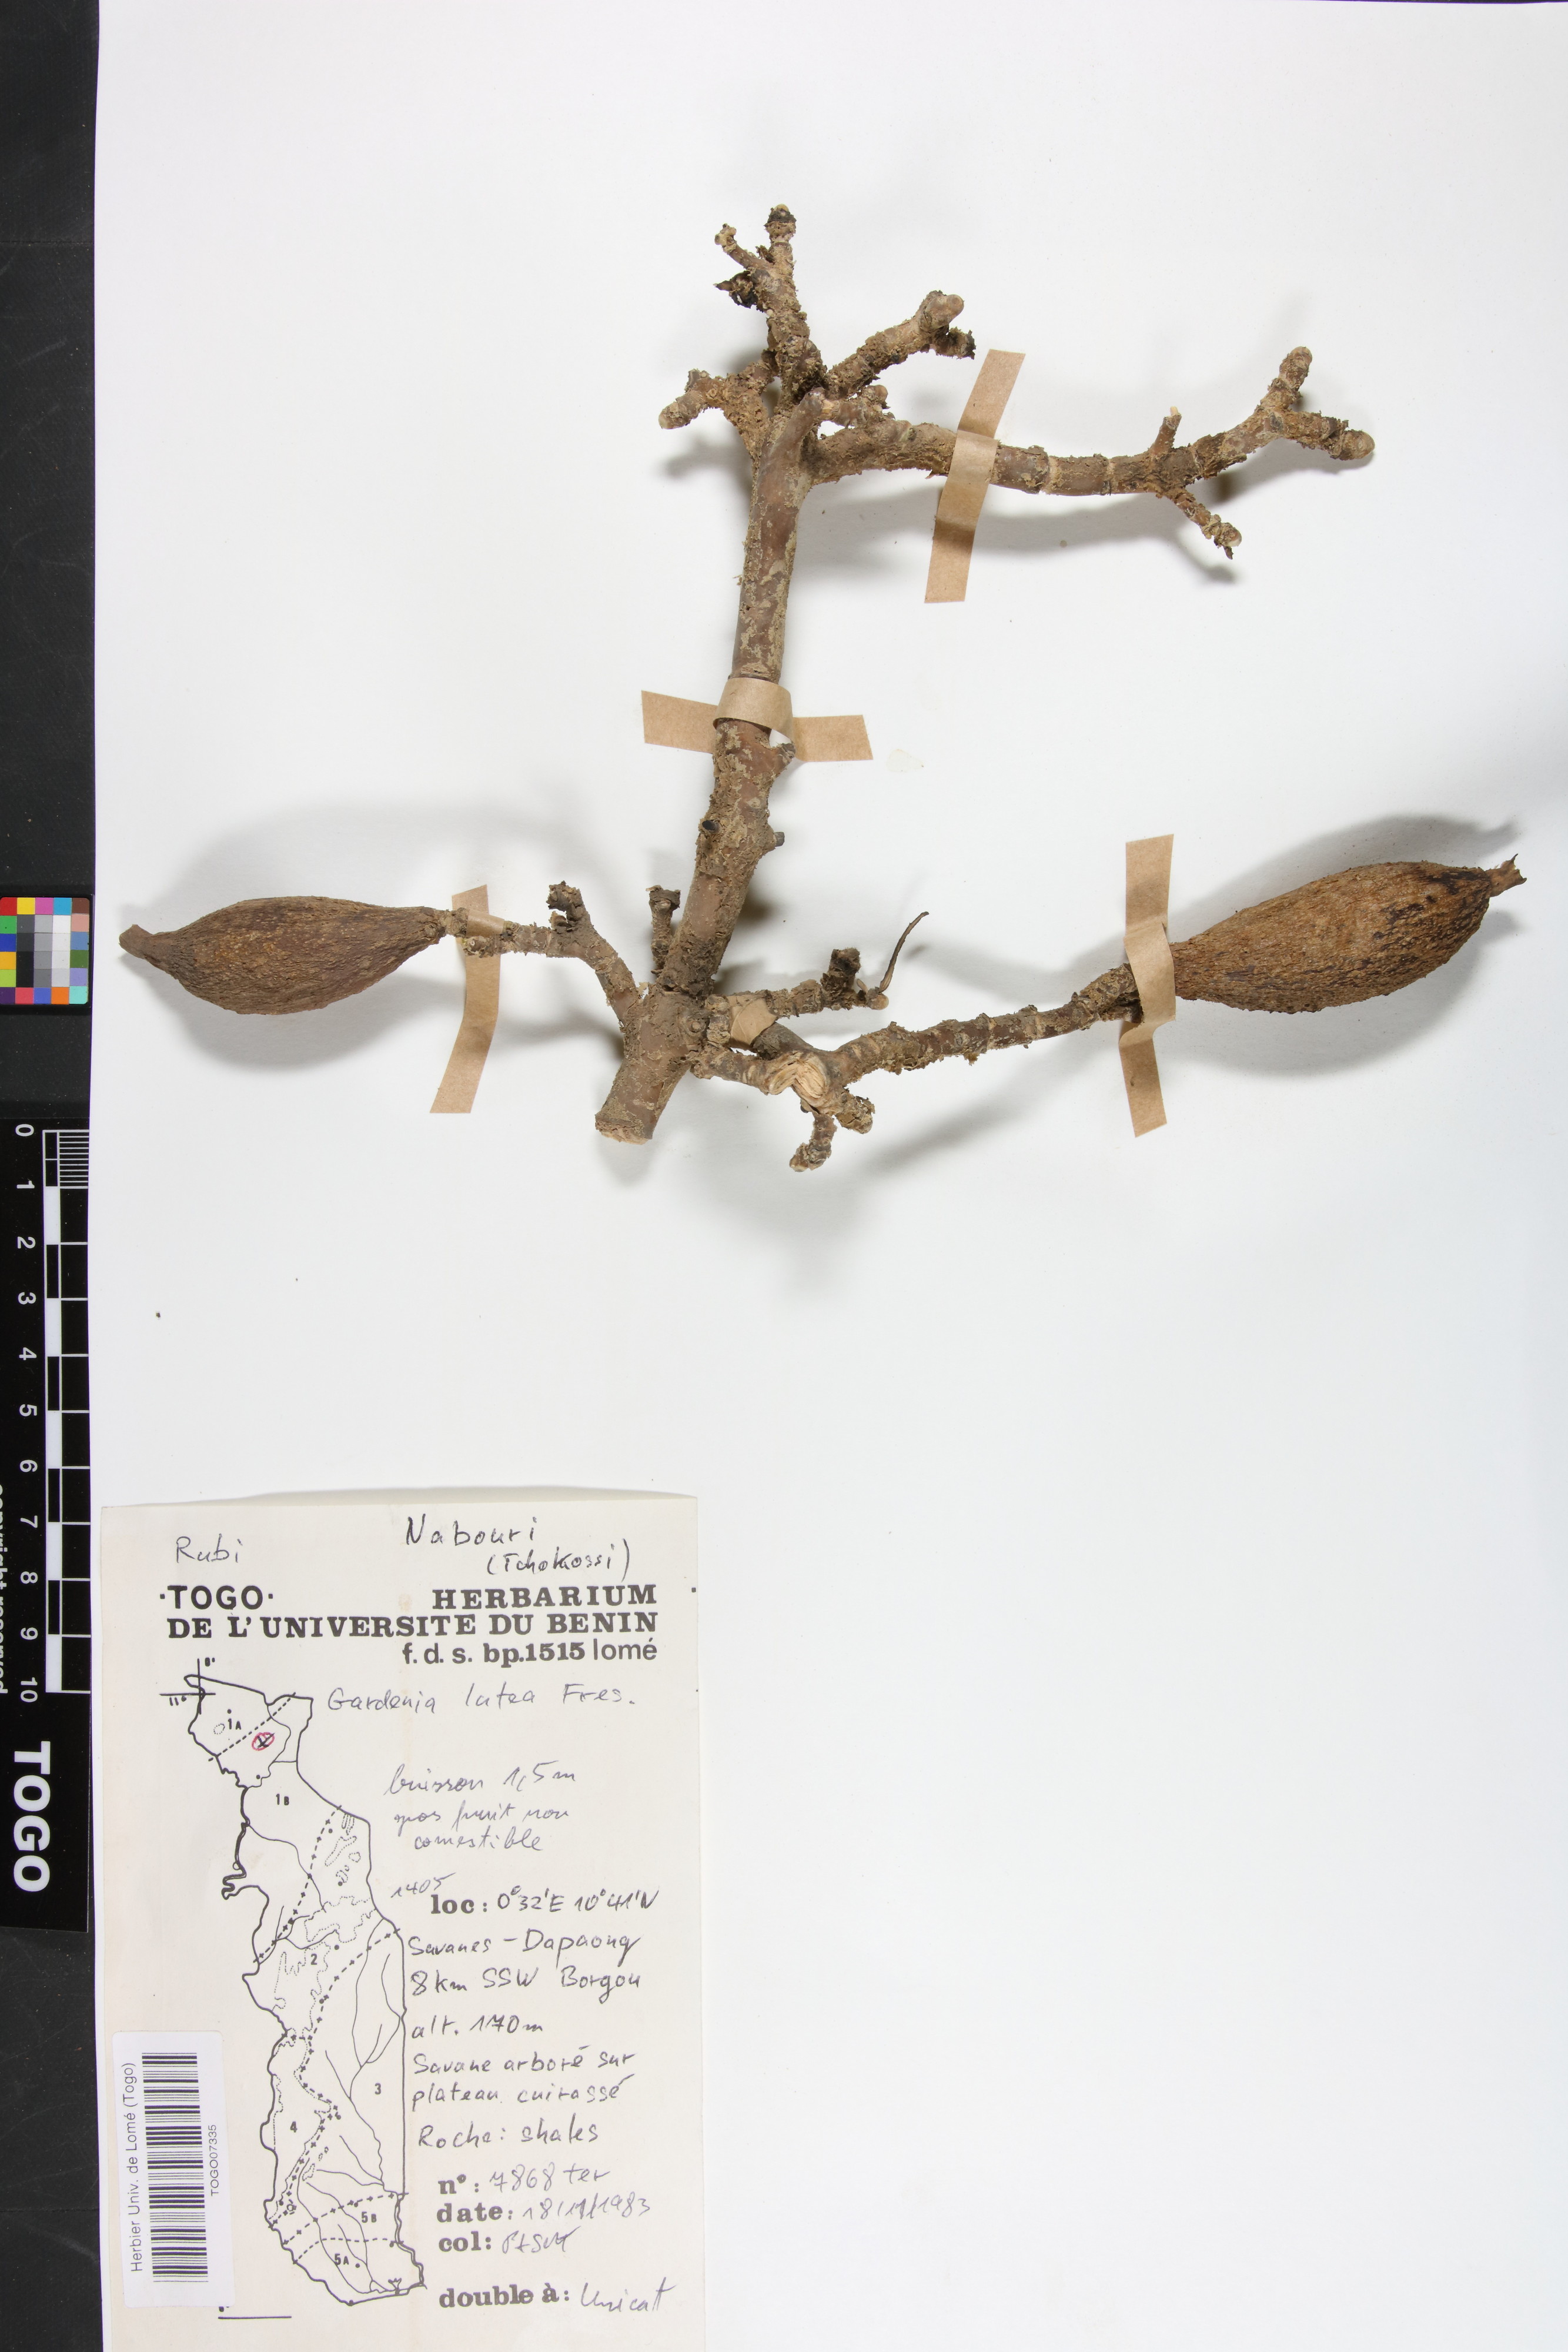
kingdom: Plantae
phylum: Tracheophyta
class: Magnoliopsida
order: Gentianales
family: Rubiaceae
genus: Gardenia
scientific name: Gardenia ternifolia
